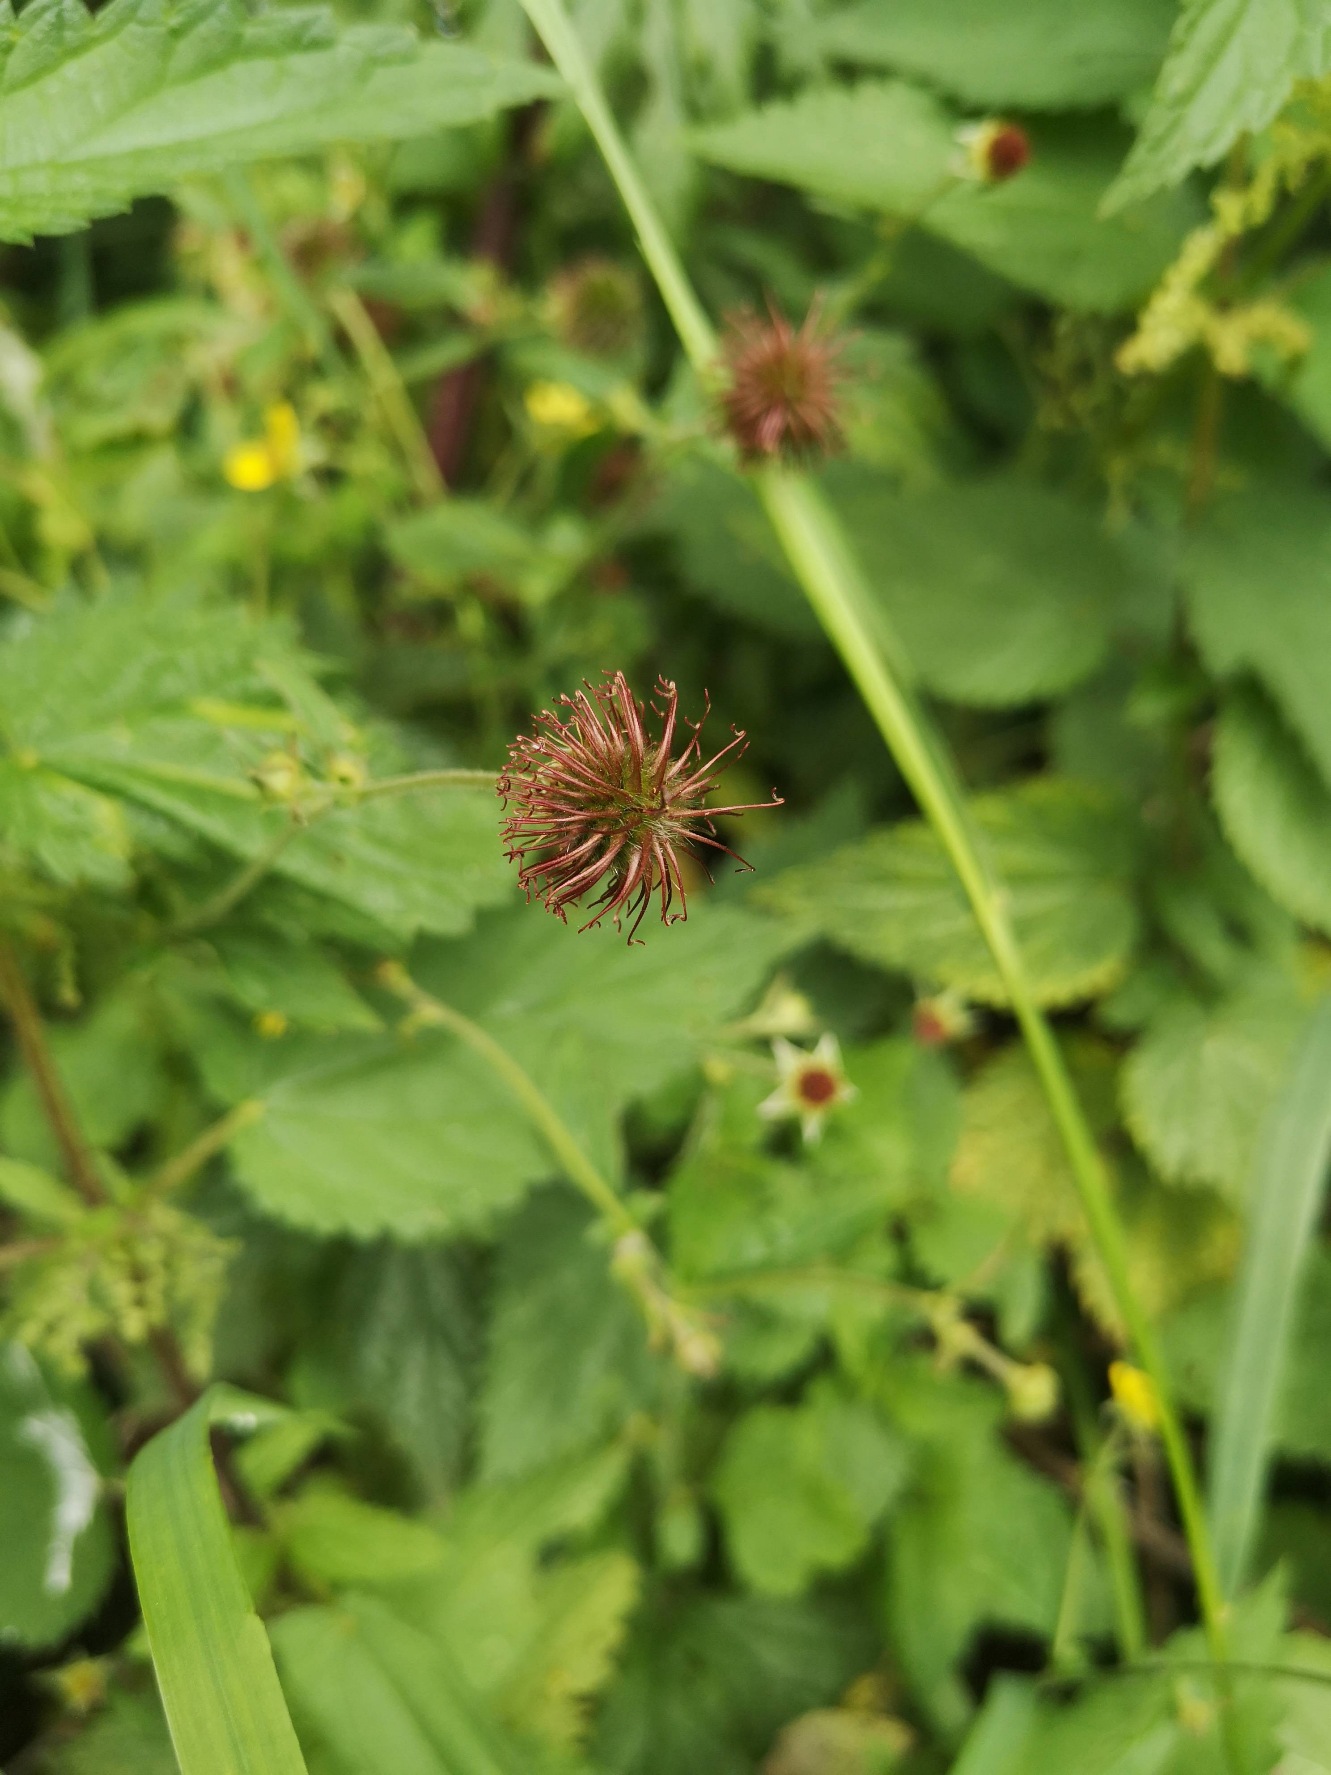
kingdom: Plantae
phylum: Tracheophyta
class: Magnoliopsida
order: Rosales
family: Rosaceae
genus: Geum
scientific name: Geum urbanum
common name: Feber-nellikerod
